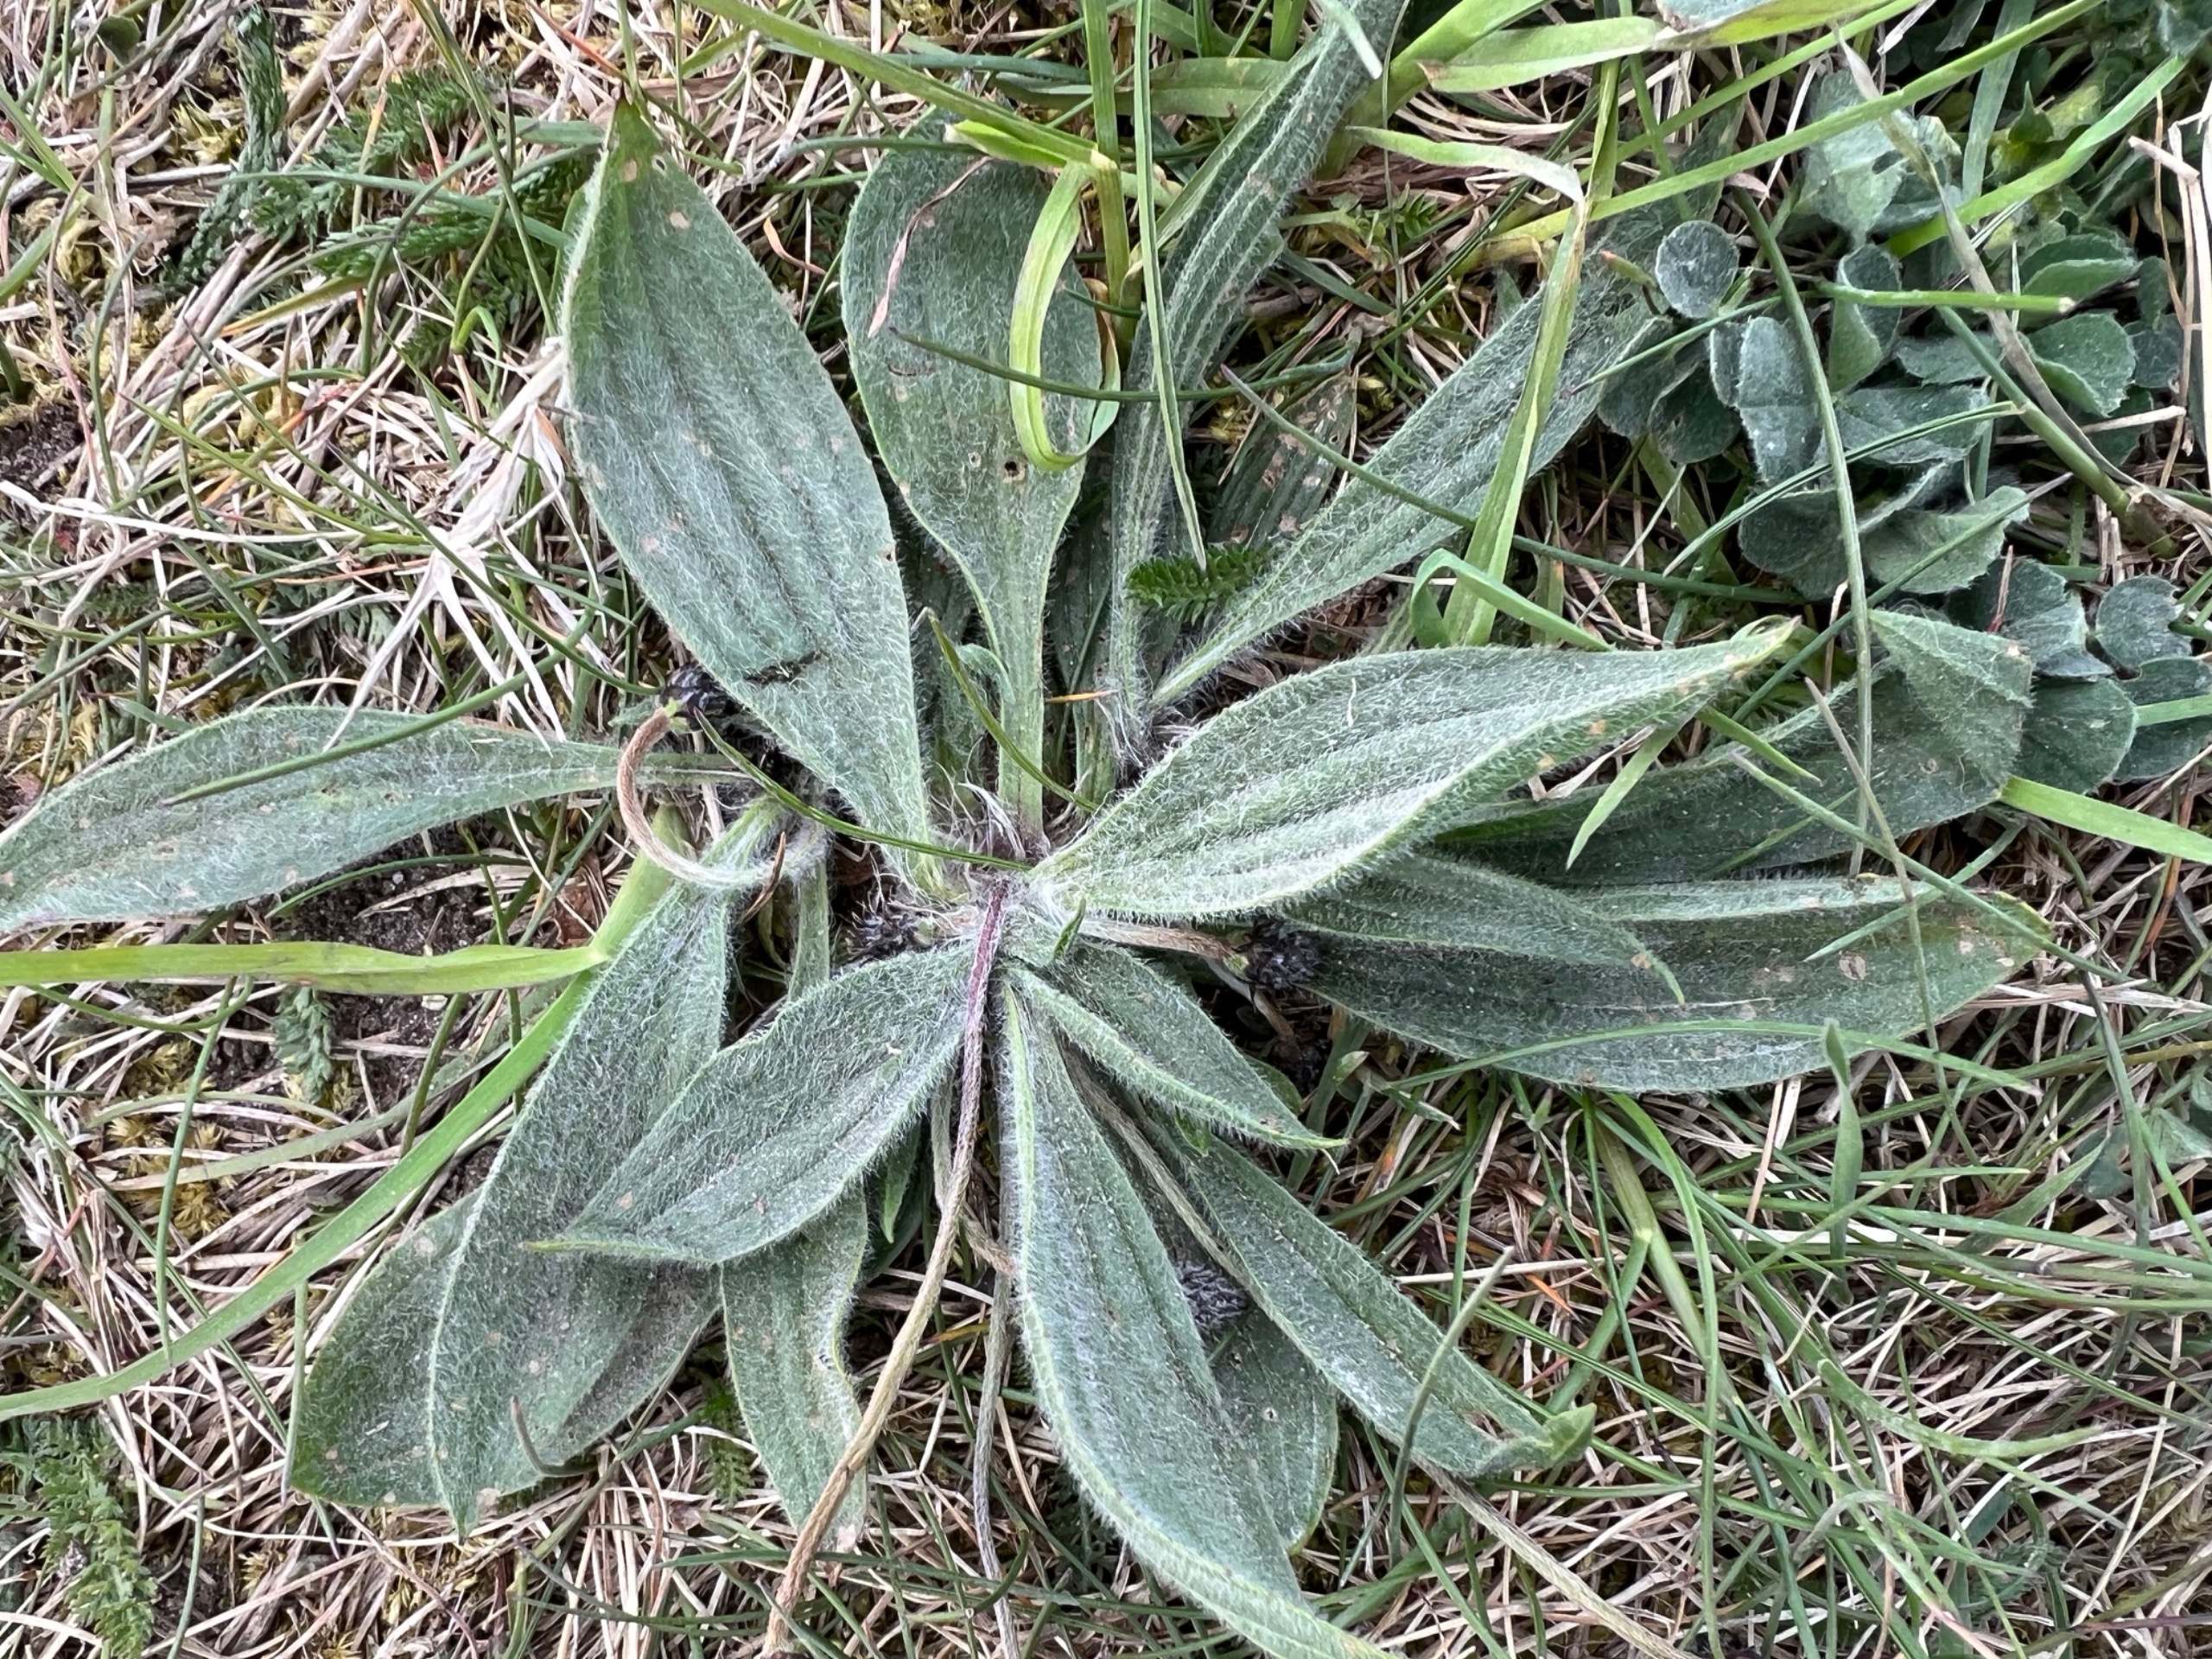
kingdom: Plantae
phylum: Tracheophyta
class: Magnoliopsida
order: Lamiales
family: Plantaginaceae
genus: Plantago
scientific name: Plantago lanceolata
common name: Lancet-vejbred
